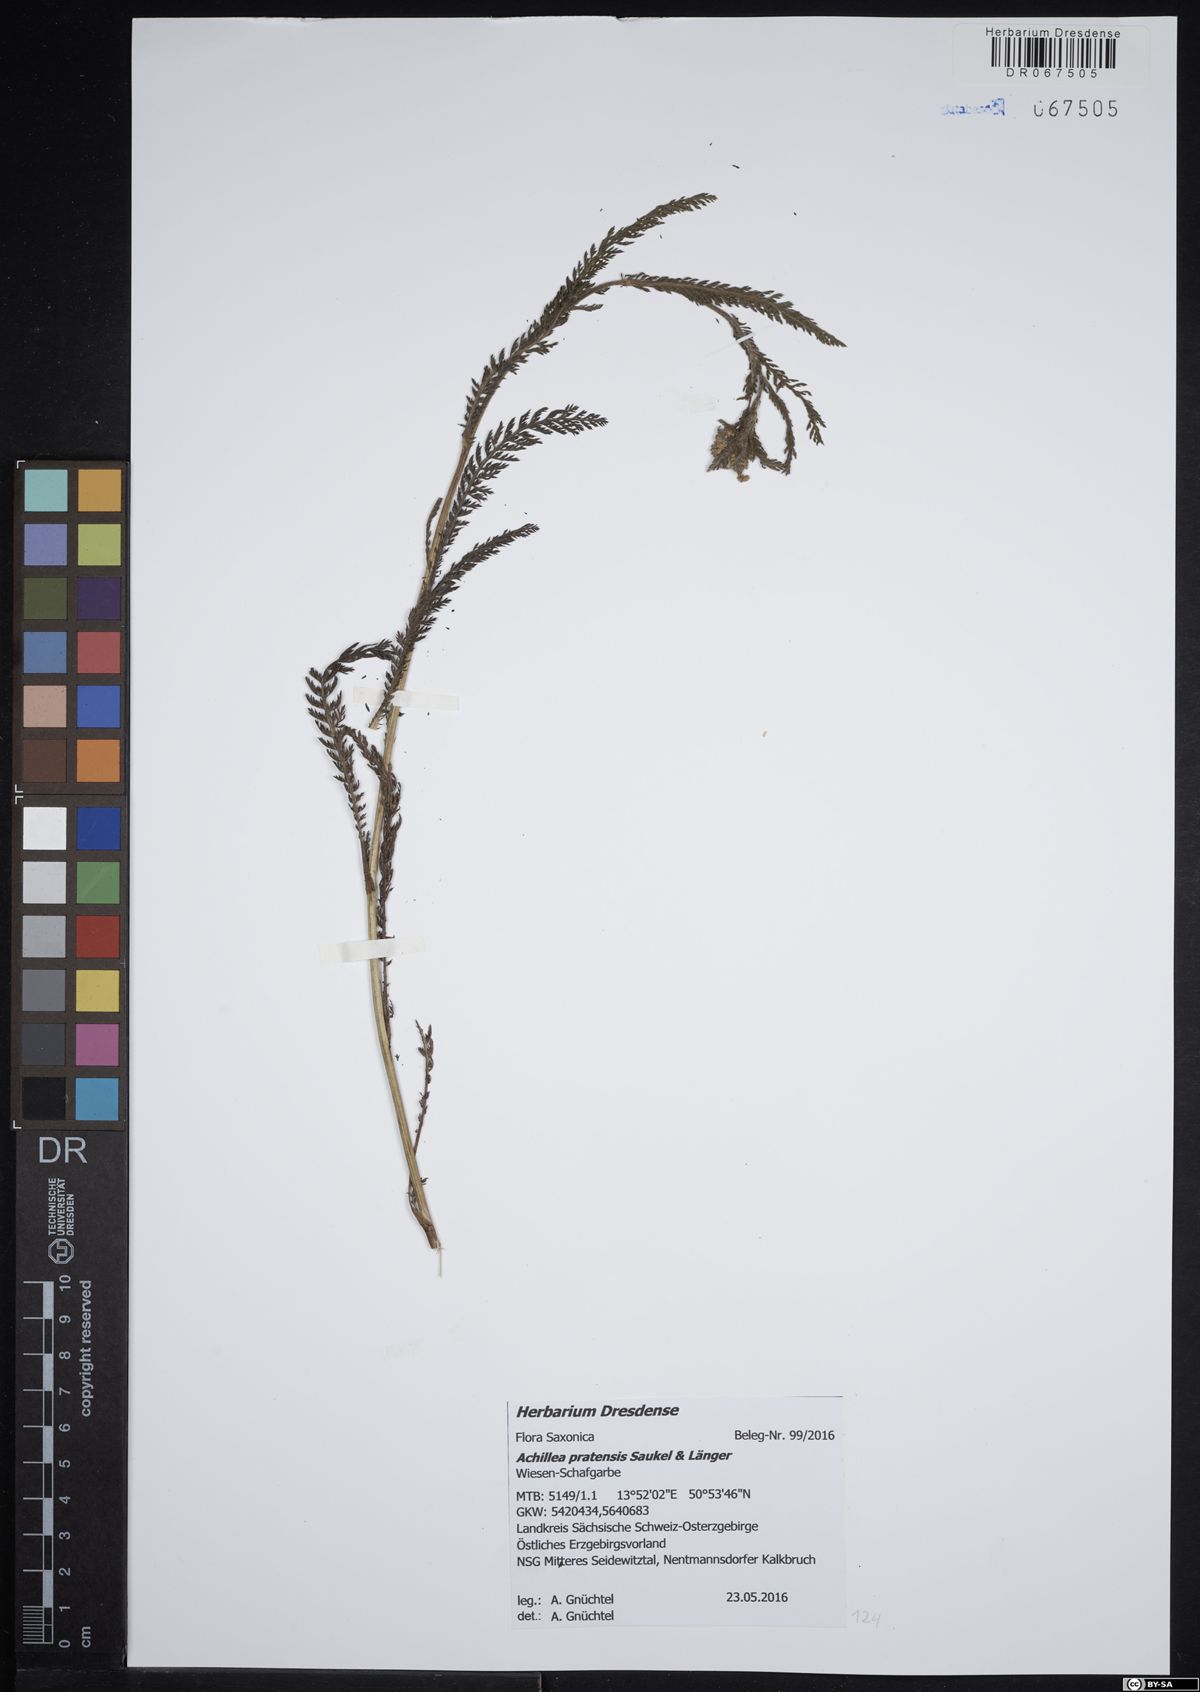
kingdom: Plantae
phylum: Tracheophyta
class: Magnoliopsida
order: Asterales
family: Asteraceae
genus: Achillea
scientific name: Achillea pratensis
